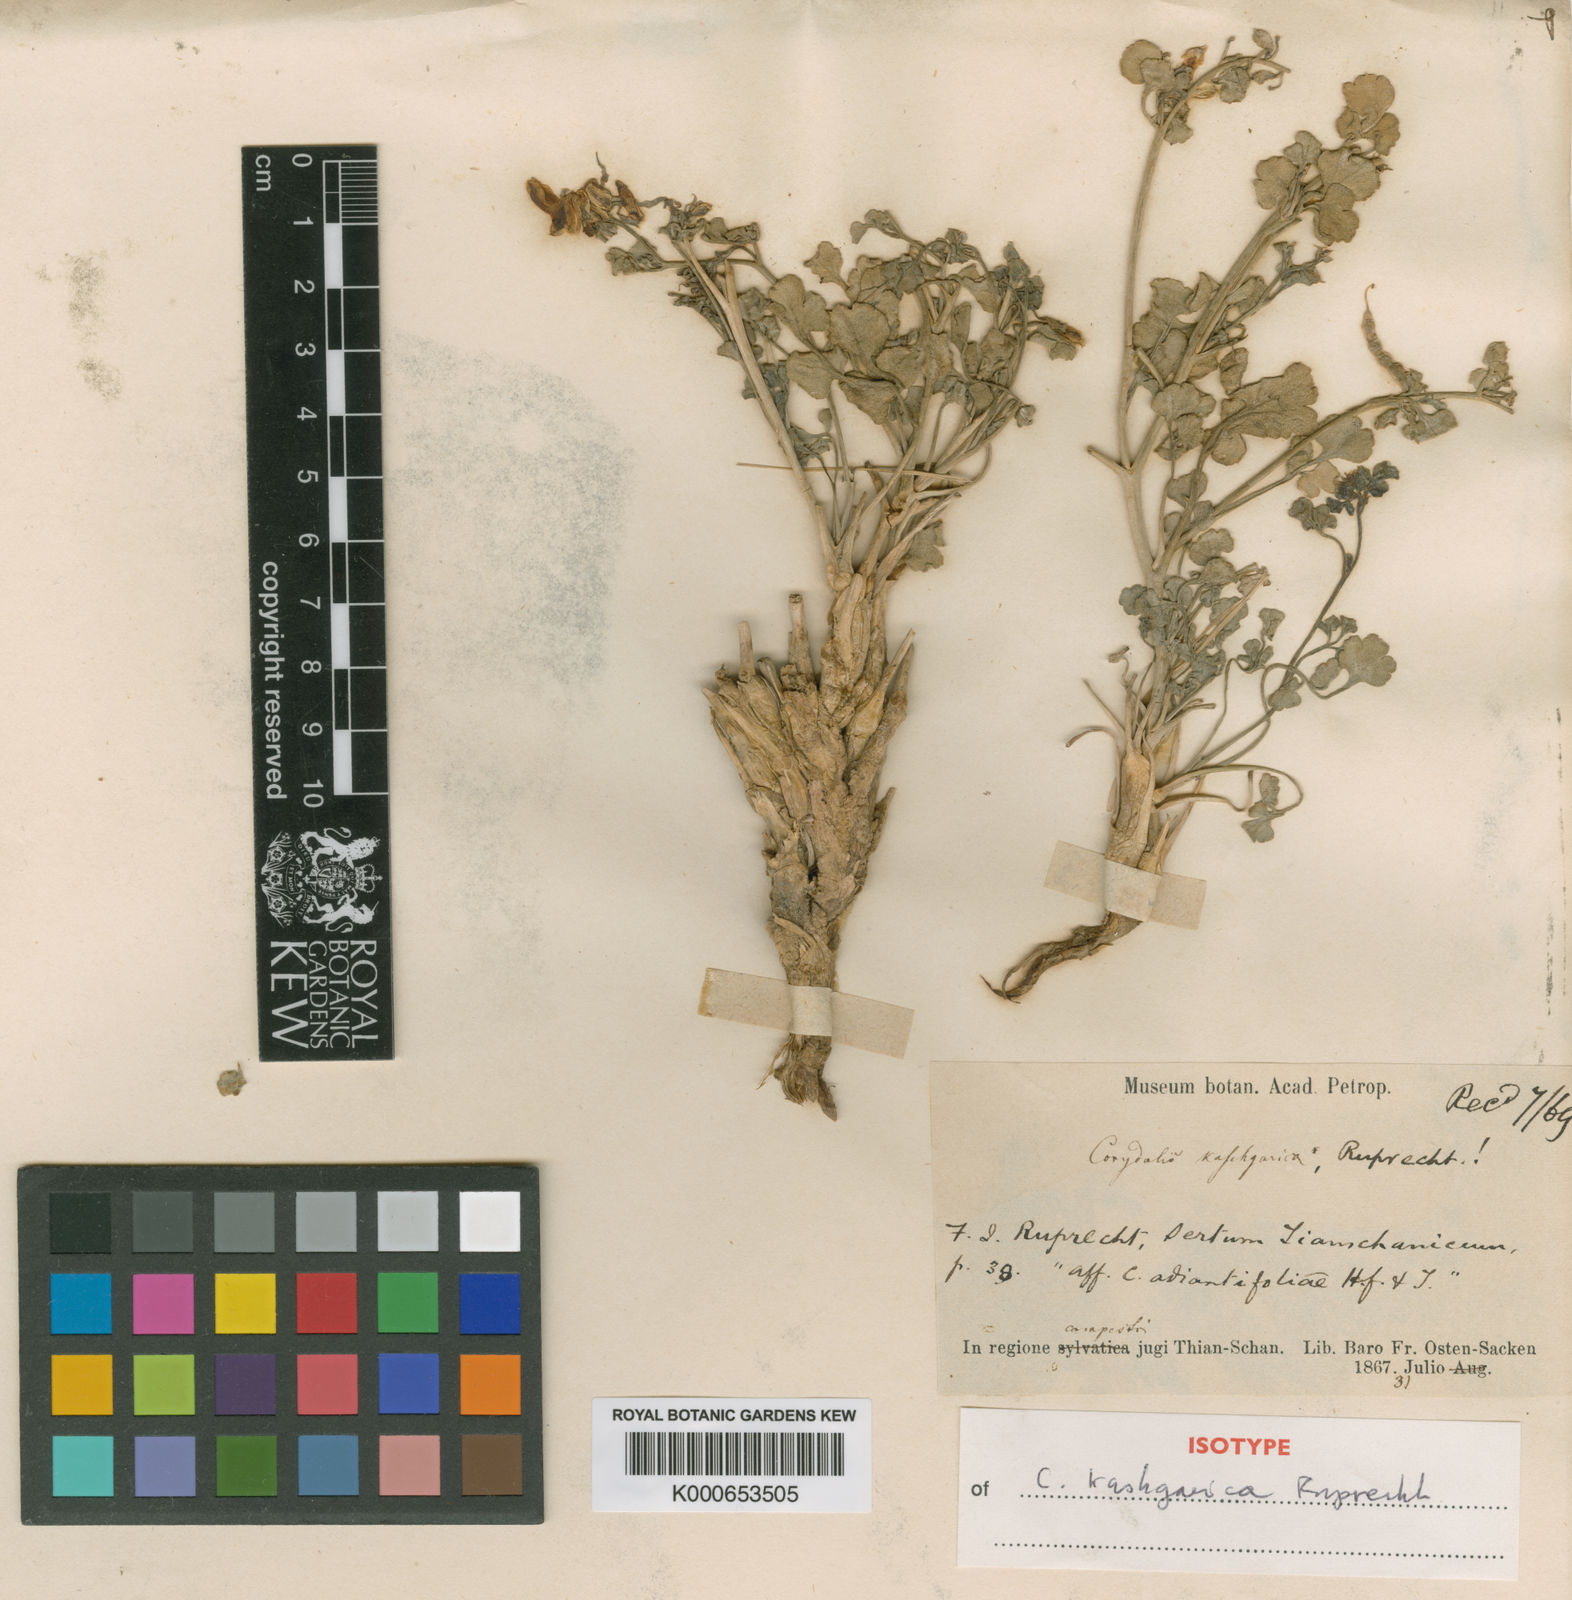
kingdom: Plantae
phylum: Tracheophyta
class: Magnoliopsida
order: Ranunculales
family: Papaveraceae
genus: Corydalis
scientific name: Corydalis
